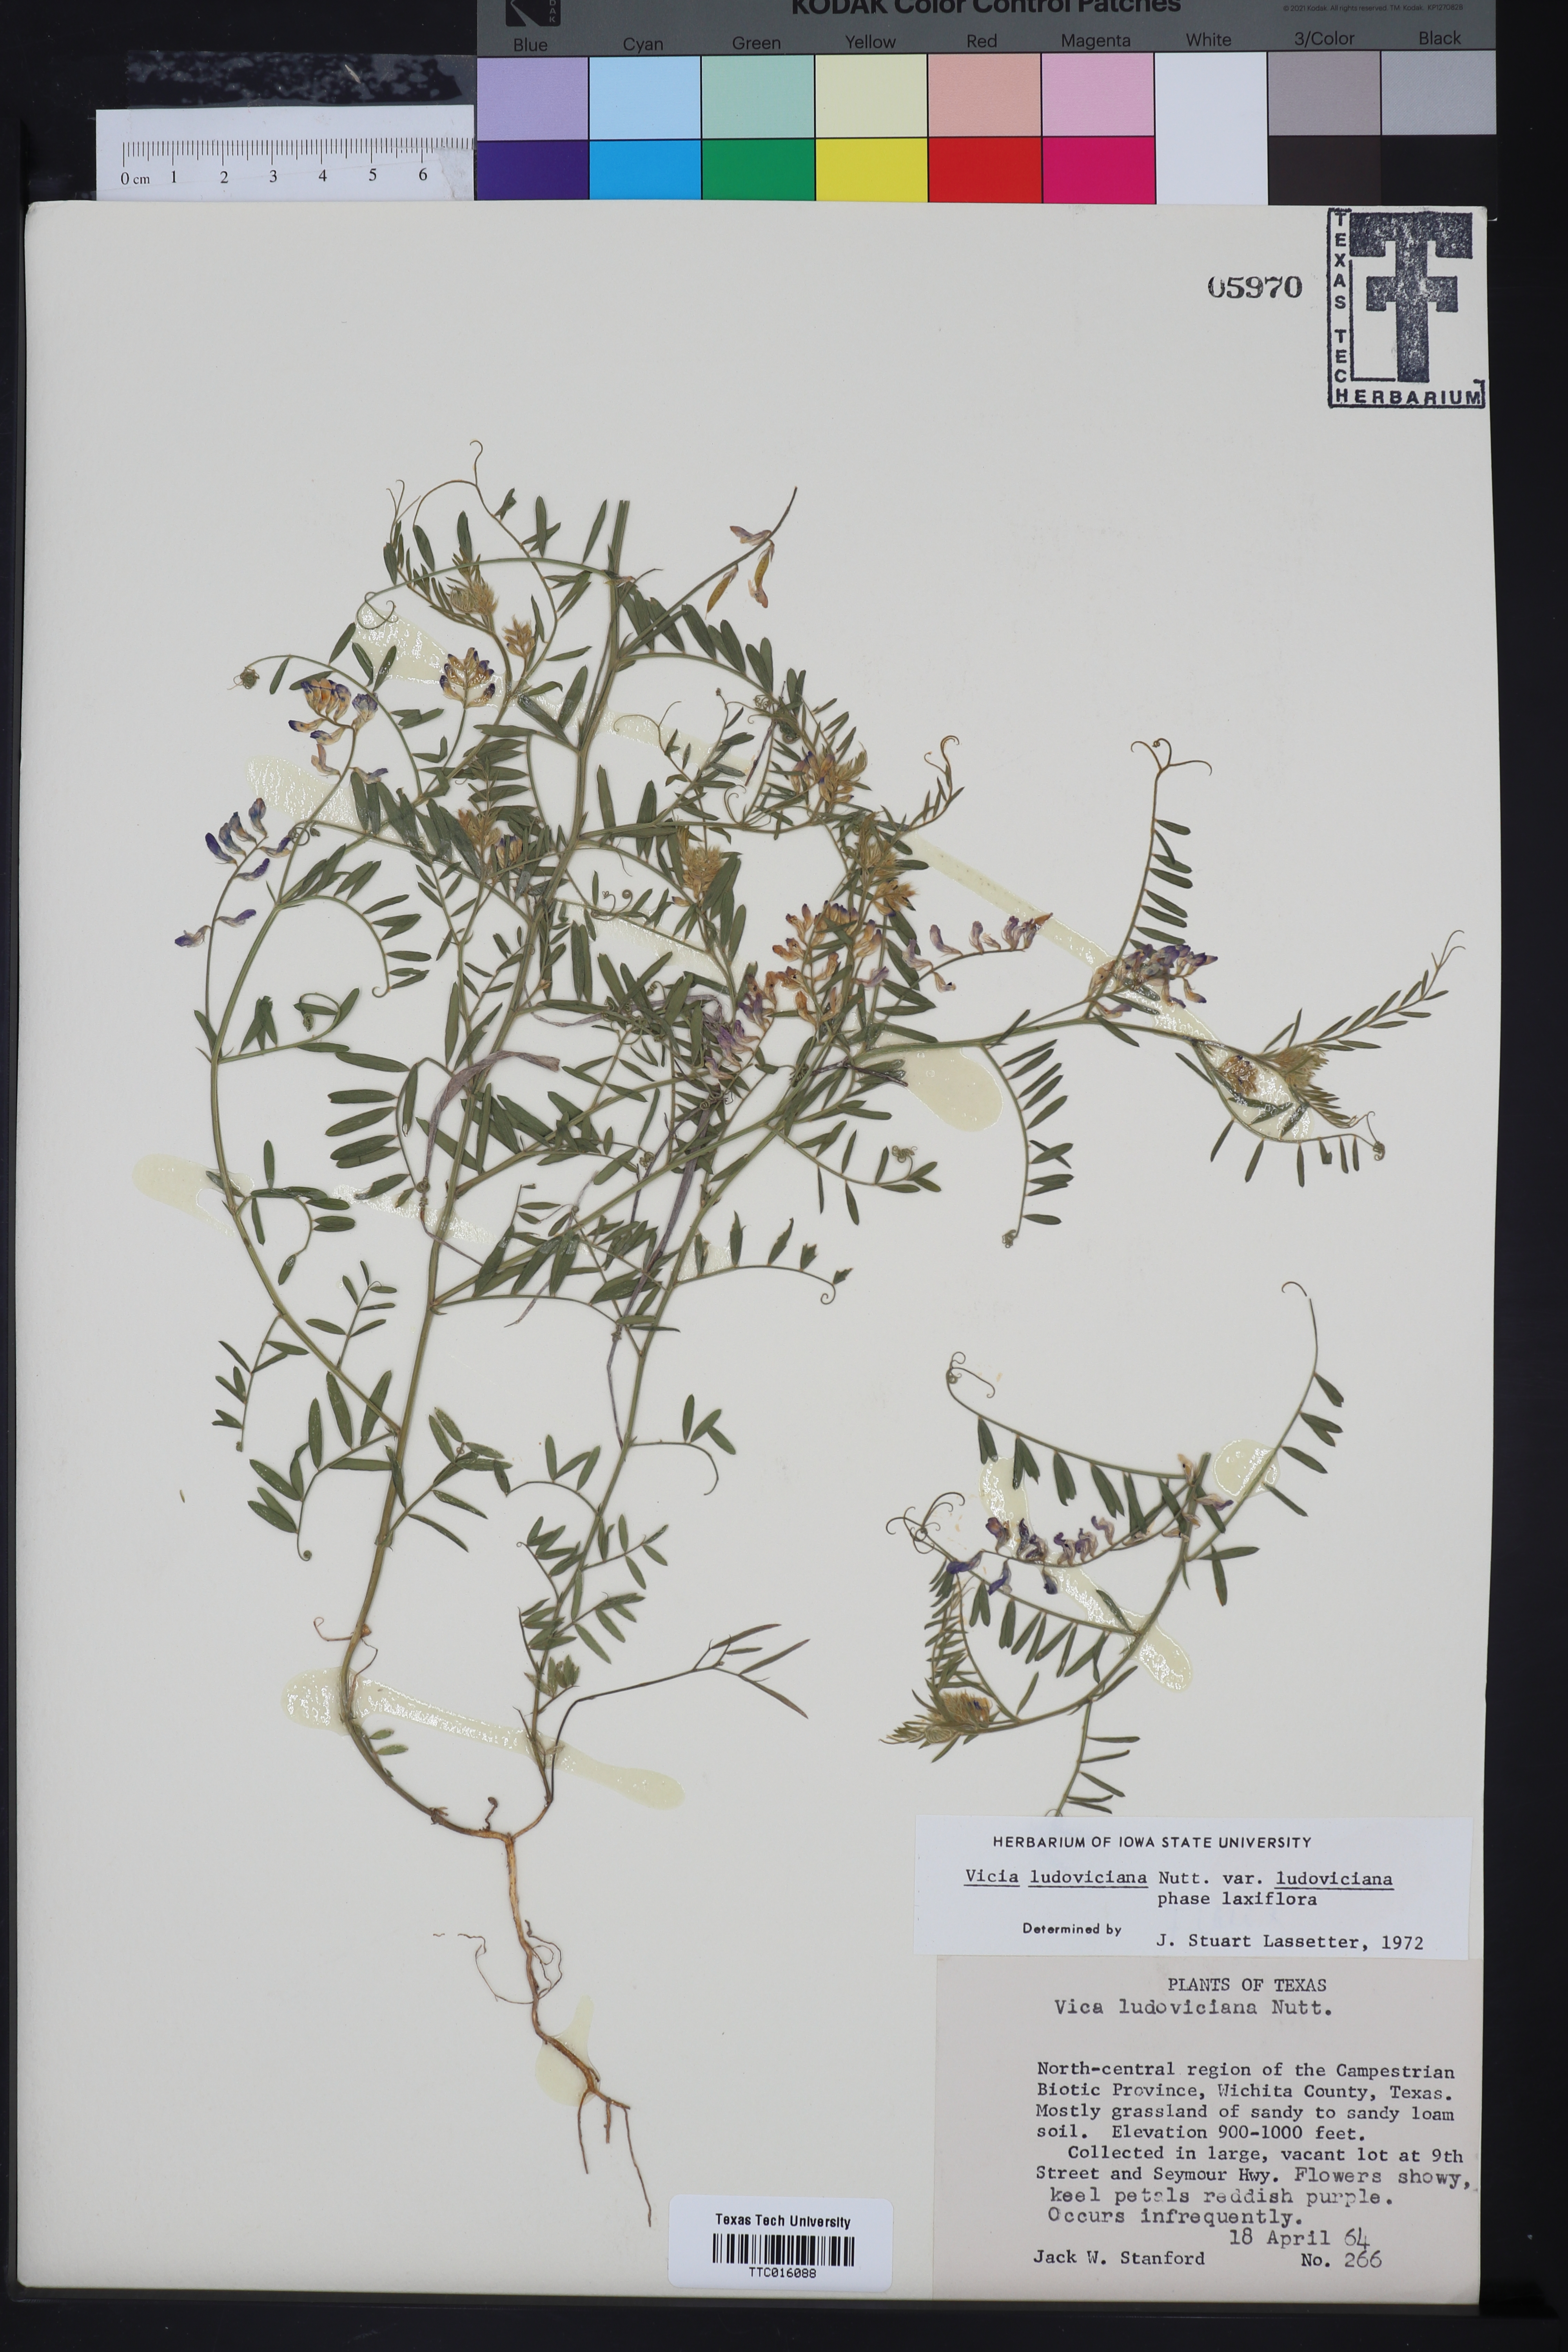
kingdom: Plantae
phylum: Tracheophyta
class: Magnoliopsida
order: Fabales
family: Fabaceae
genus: Vicia
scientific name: Vicia ludoviciana
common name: Louisiana vetch
